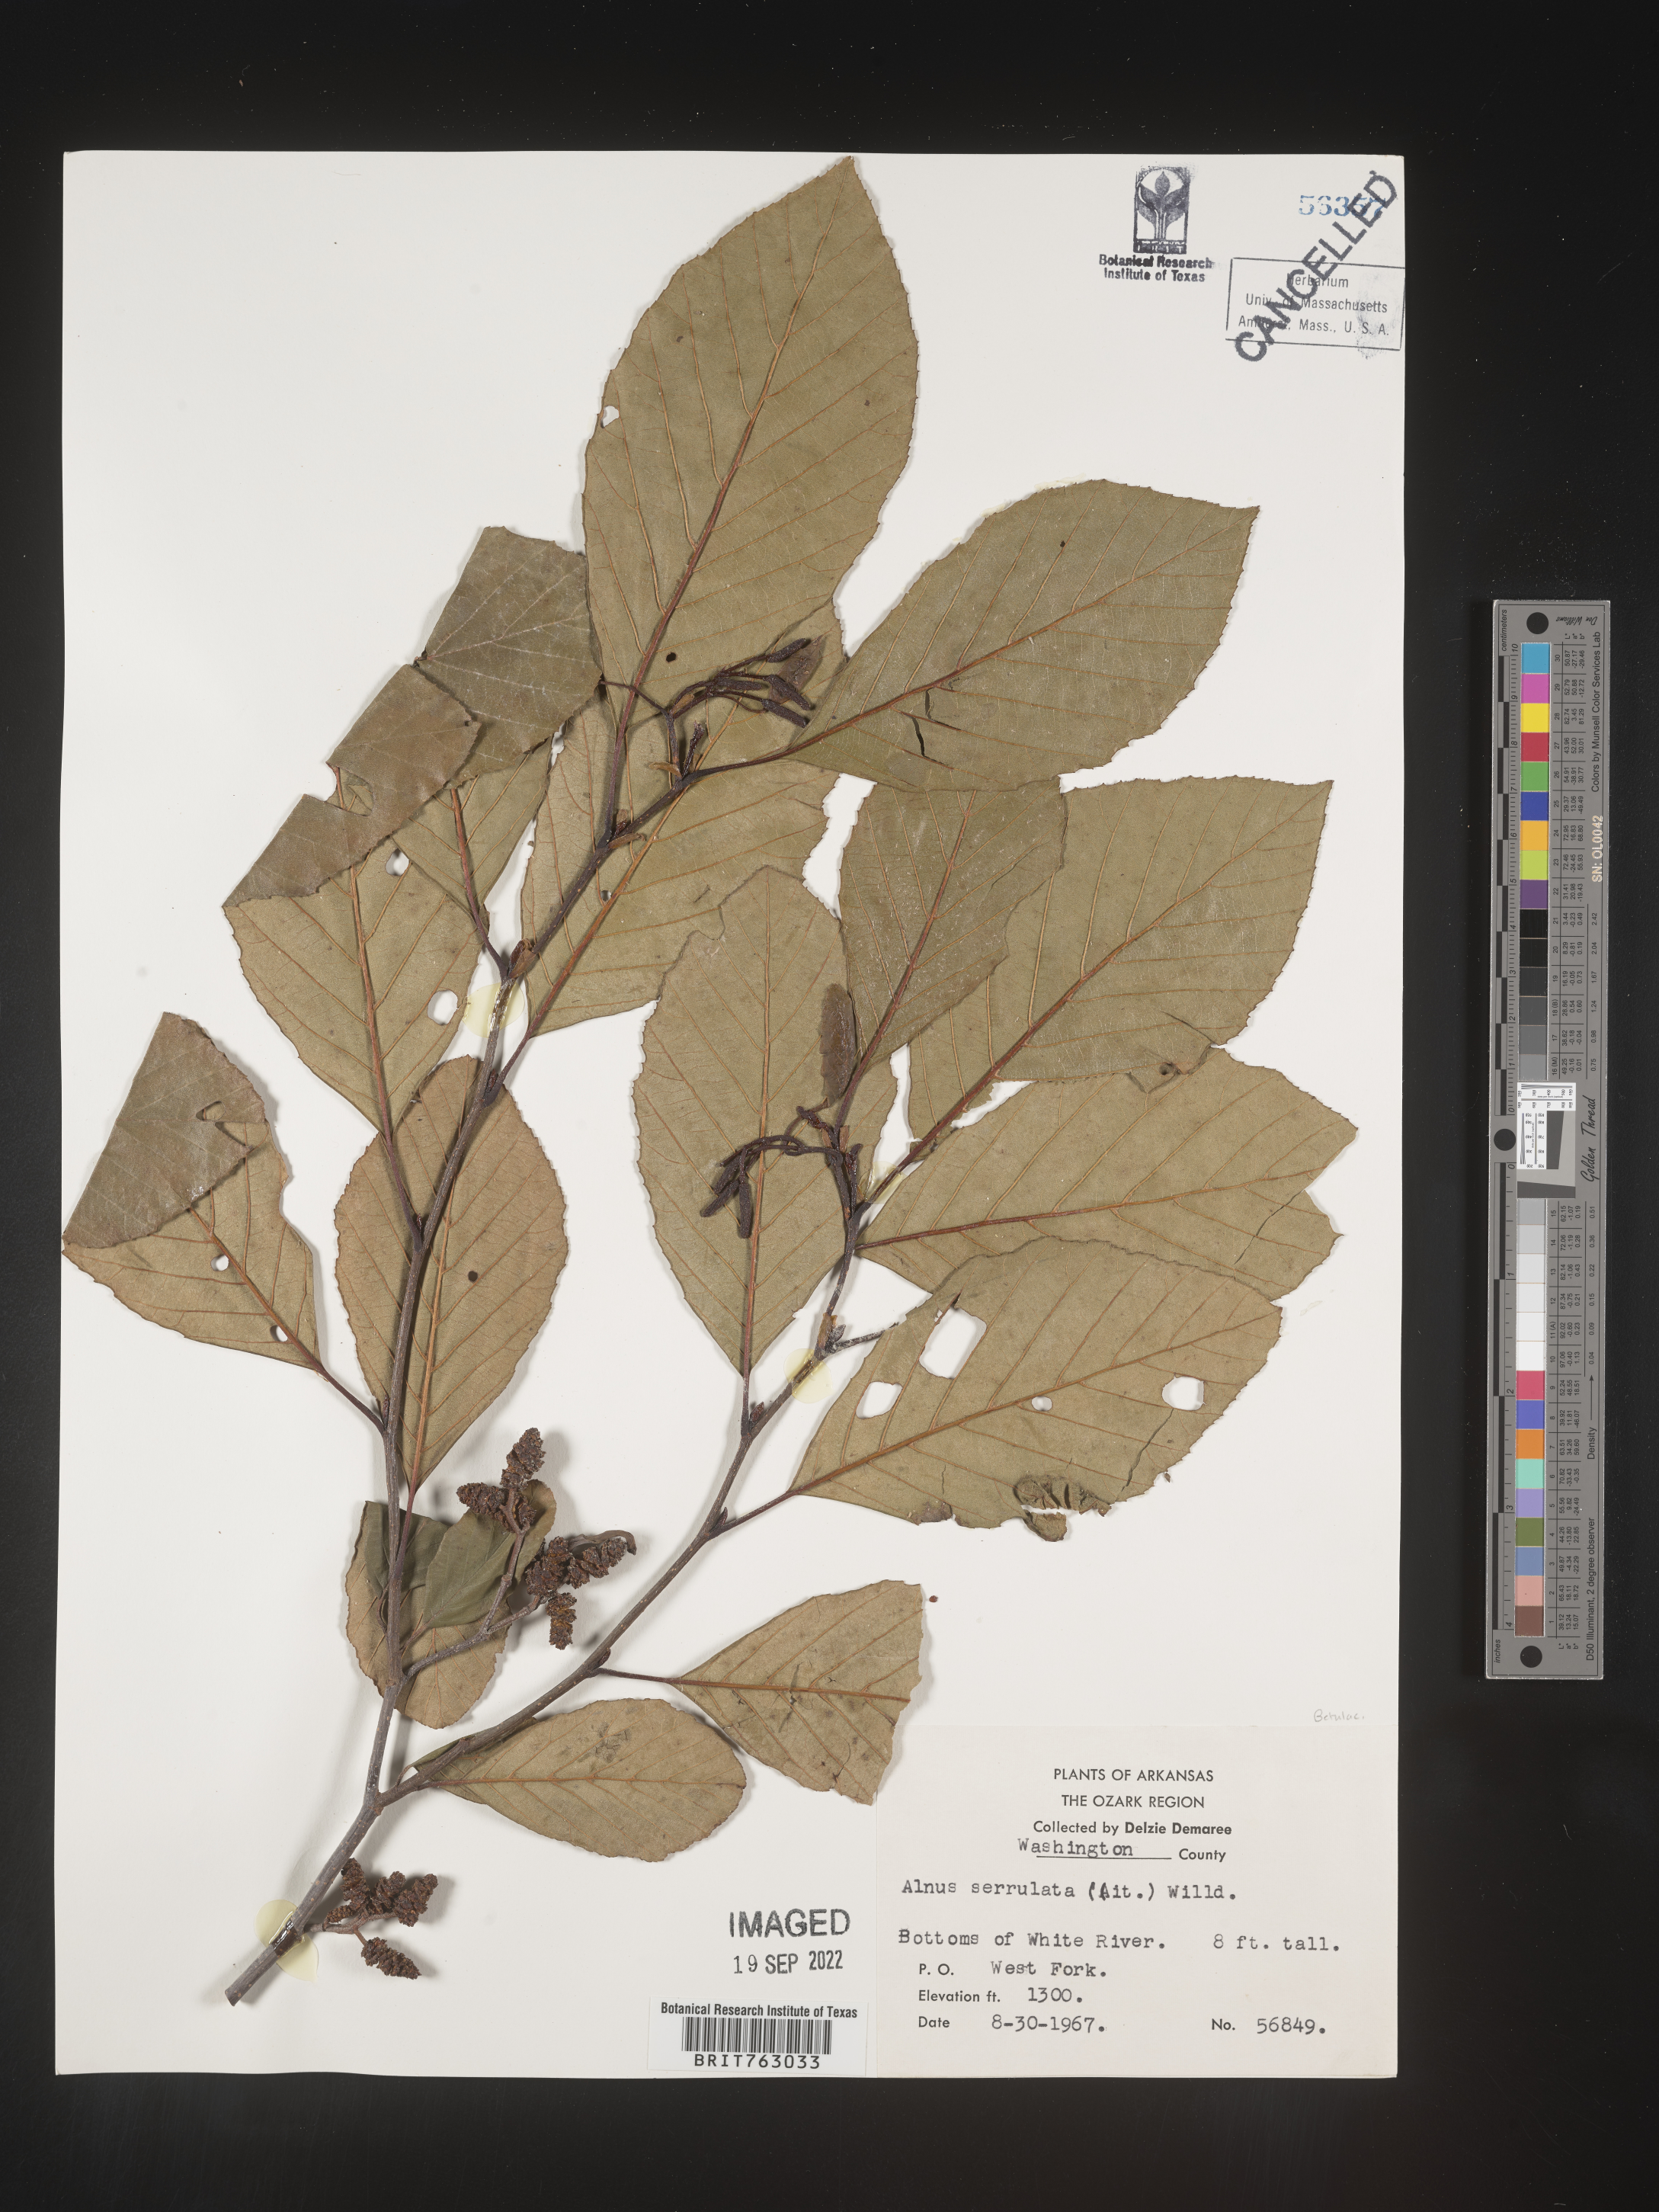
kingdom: Plantae
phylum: Tracheophyta
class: Magnoliopsida
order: Fagales
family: Betulaceae
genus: Alnus
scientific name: Alnus serrulata
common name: Hazel alder
